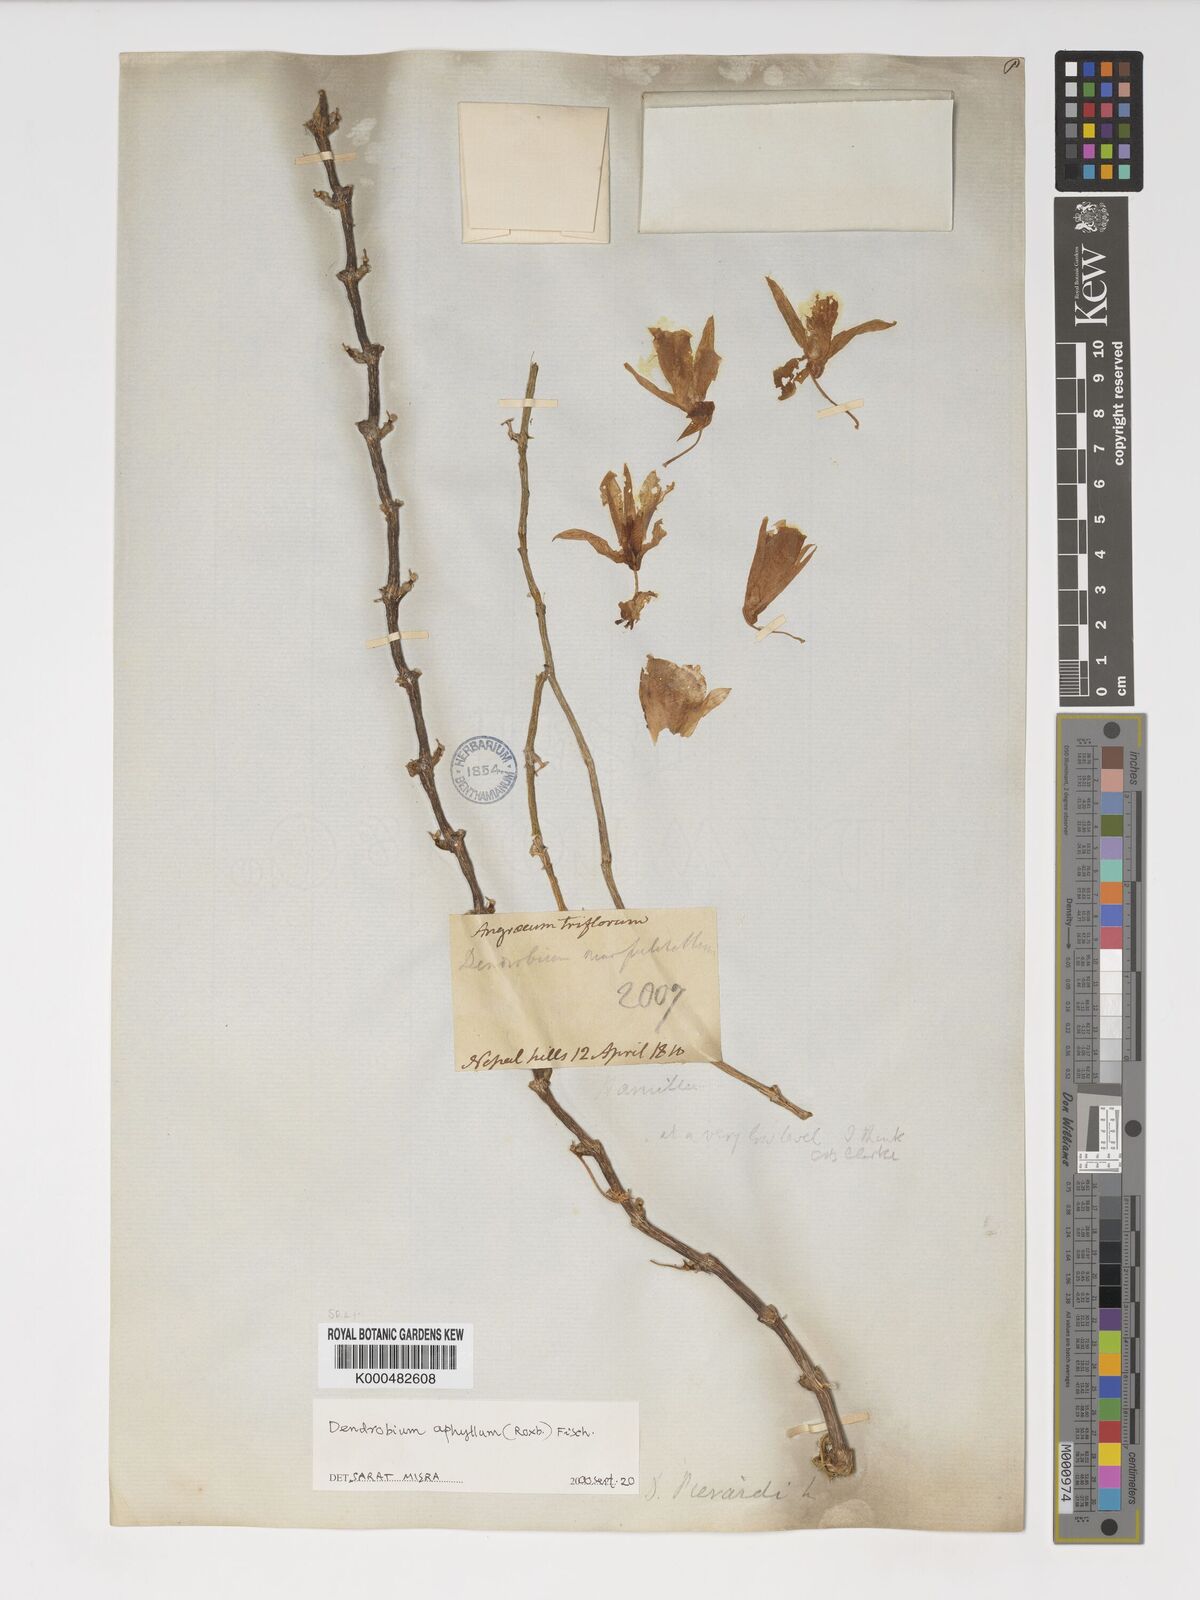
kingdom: Plantae
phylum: Tracheophyta
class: Liliopsida
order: Asparagales
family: Orchidaceae
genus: Dendrobium
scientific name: Dendrobium macrostachyum
